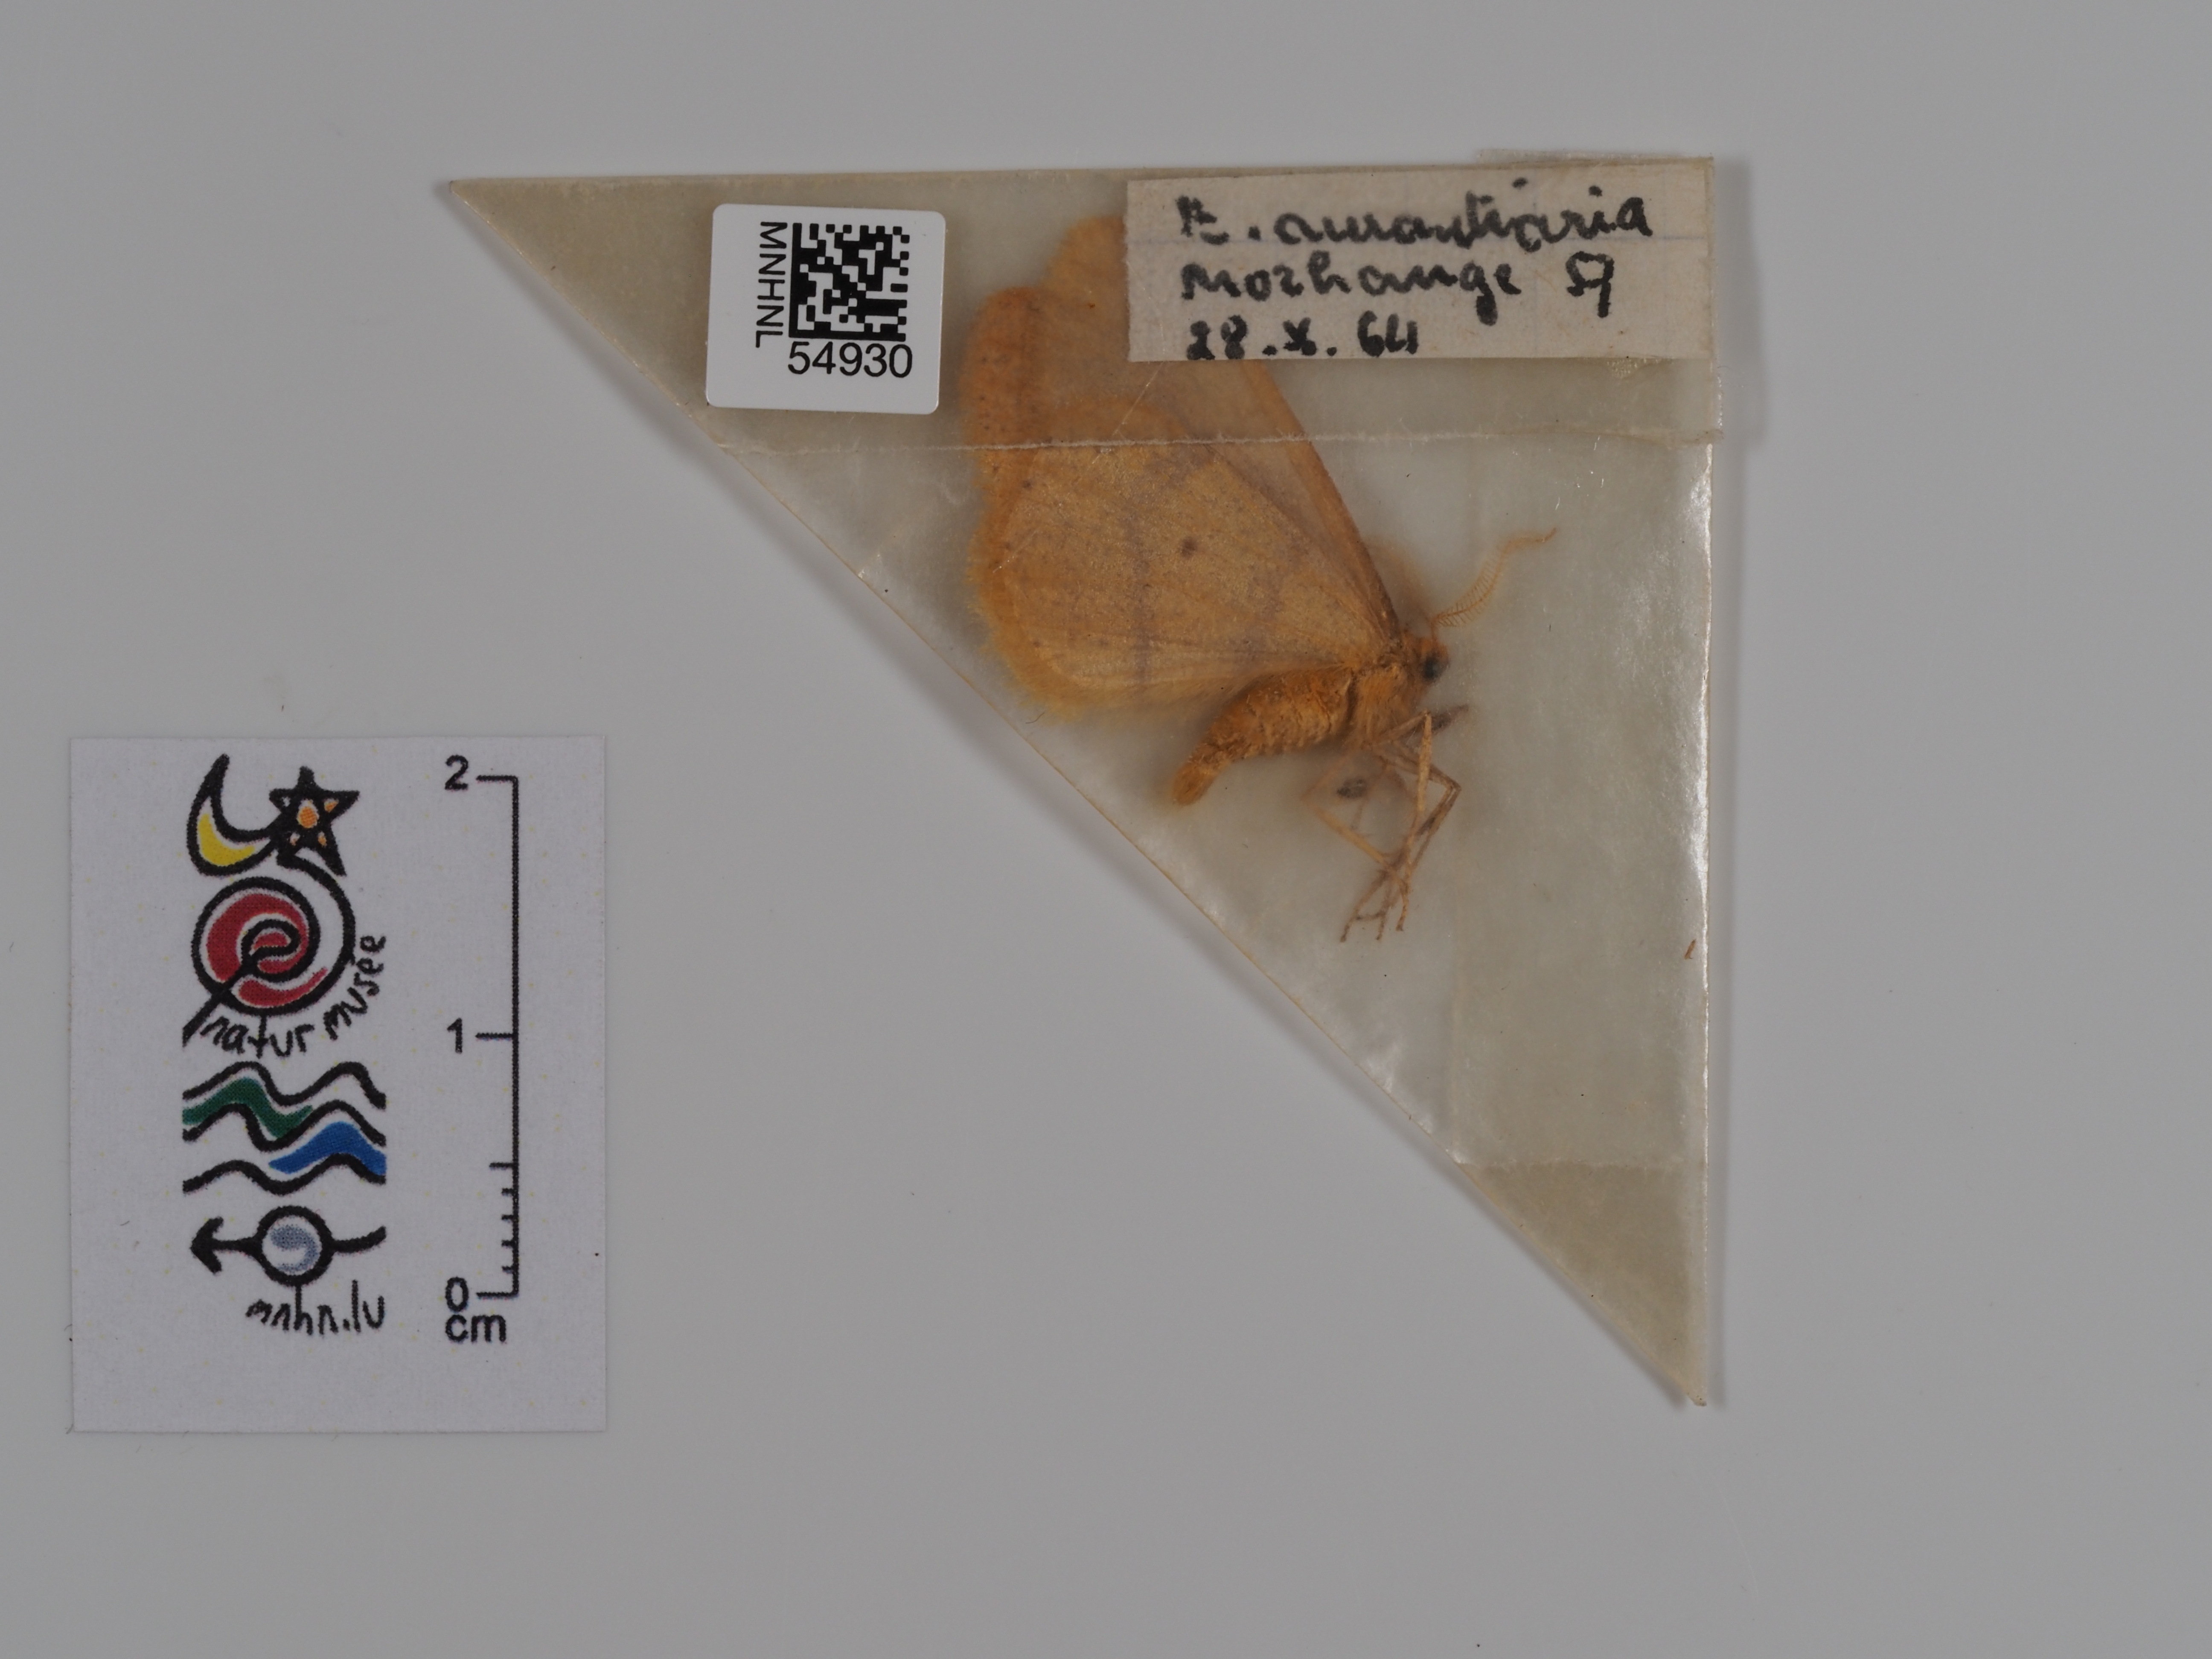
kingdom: Animalia
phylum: Arthropoda
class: Insecta
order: Lepidoptera
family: Geometridae
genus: Agriopis
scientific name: Agriopis aurantiaria
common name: Scarce umber
